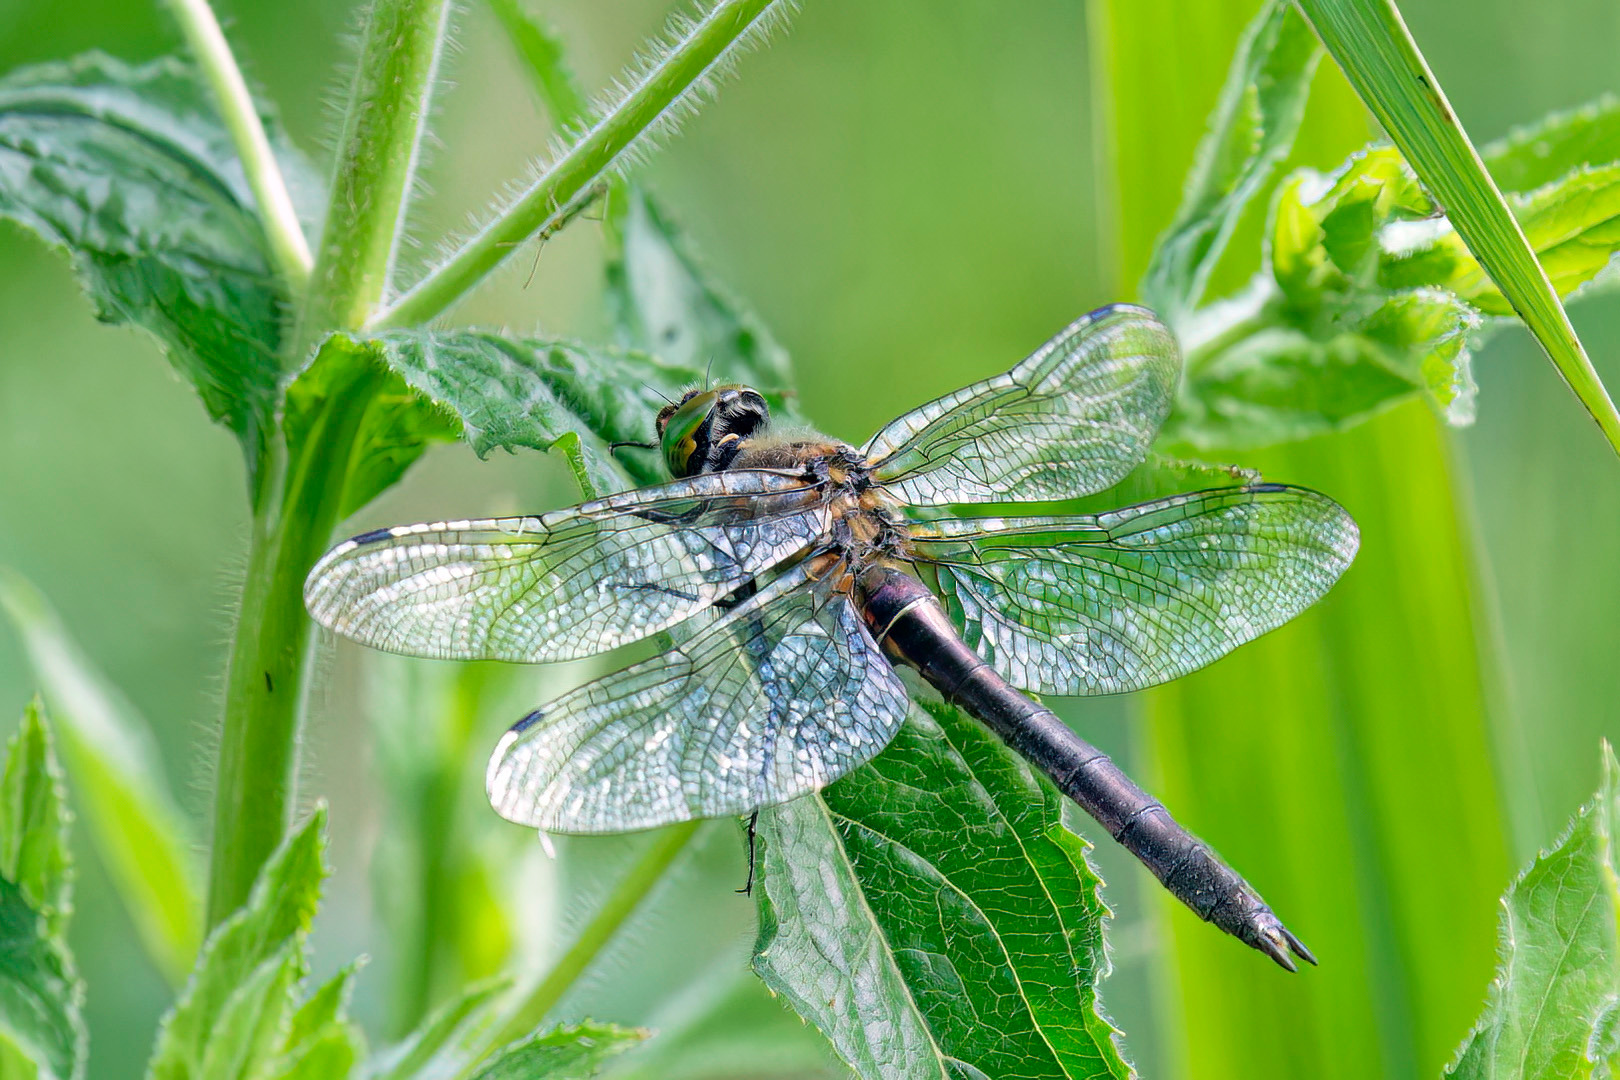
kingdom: Animalia
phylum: Arthropoda
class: Insecta
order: Odonata
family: Corduliidae
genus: Cordulia
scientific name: Cordulia aenea
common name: Grøn smaragdlibel
